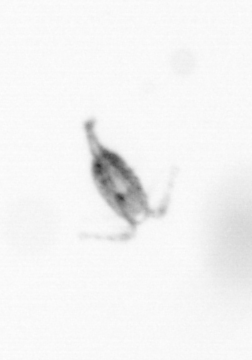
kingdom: Animalia
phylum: Arthropoda
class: Copepoda
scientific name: Copepoda
